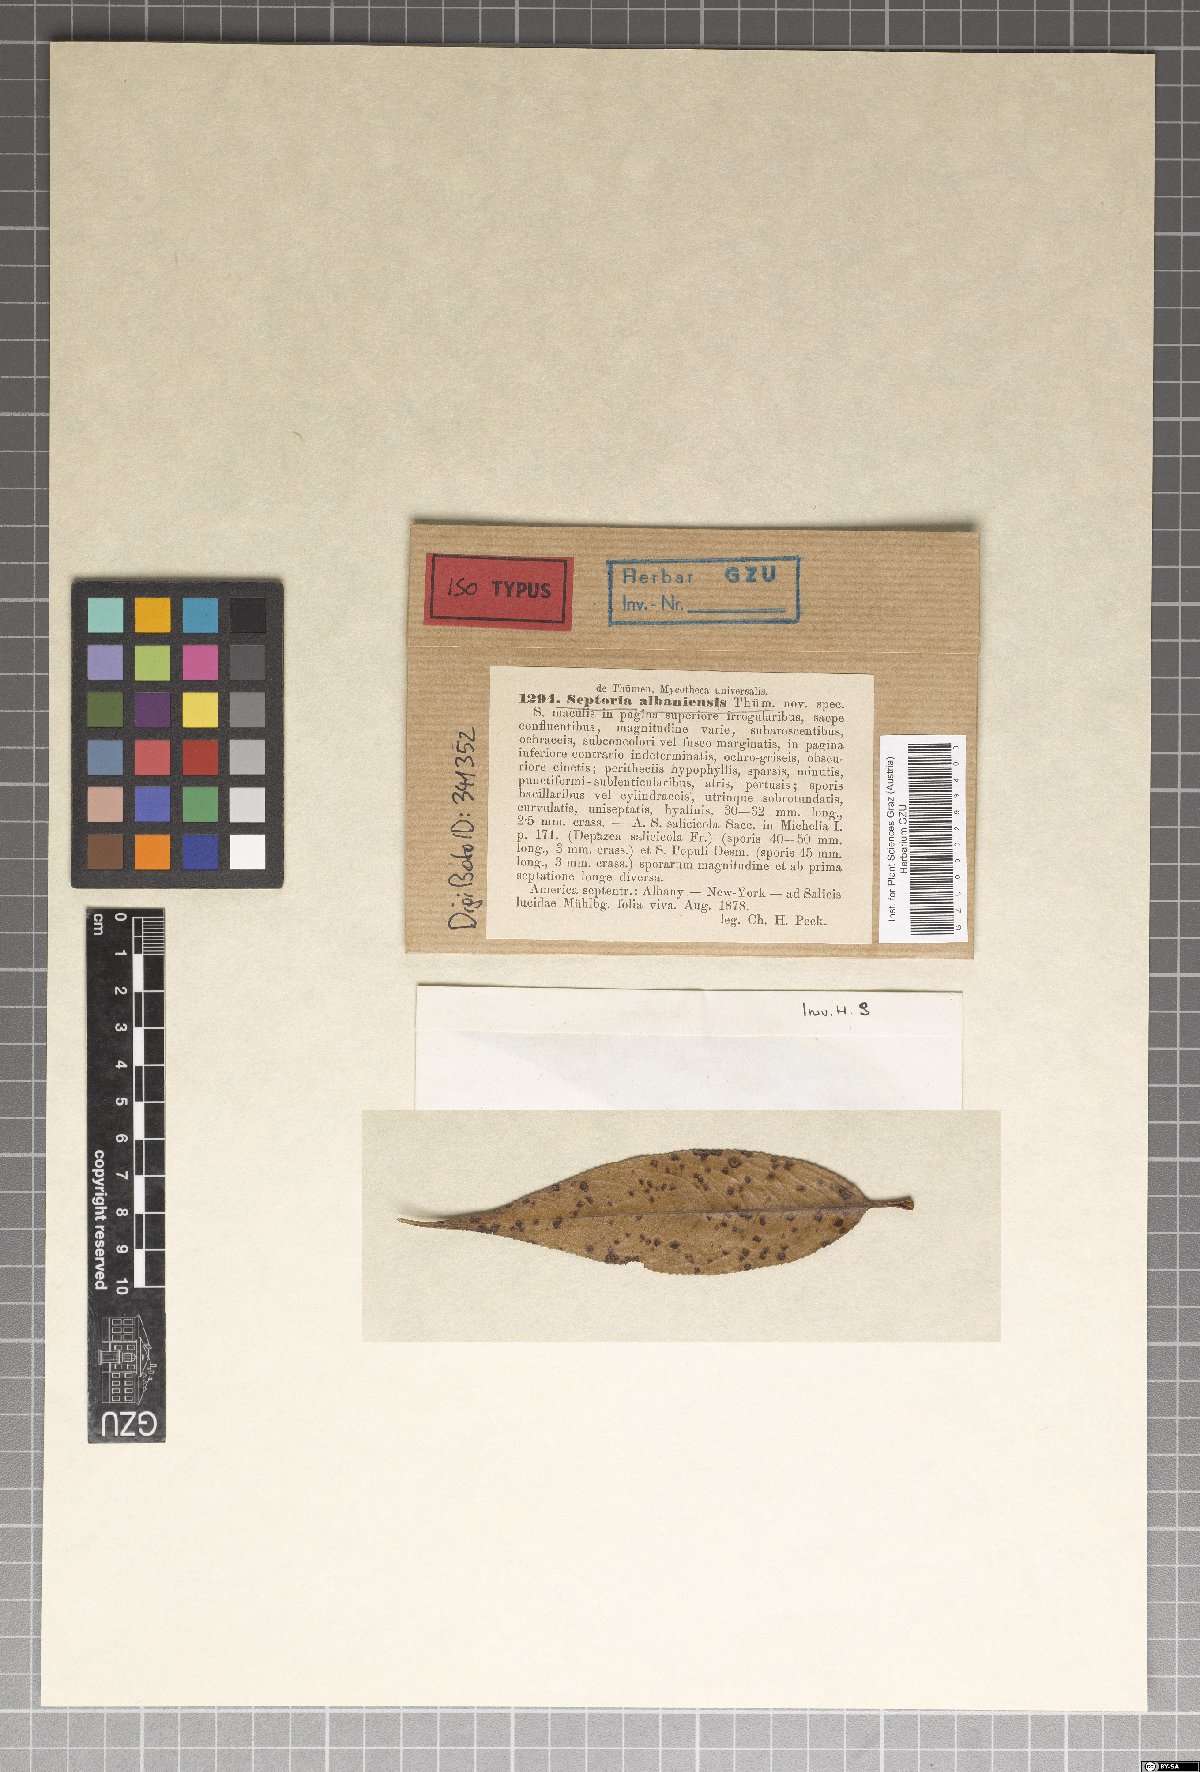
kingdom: Fungi
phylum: Ascomycota
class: Dothideomycetes
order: Mycosphaerellales
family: Mycosphaerellaceae
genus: Septoria
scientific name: Septoria
